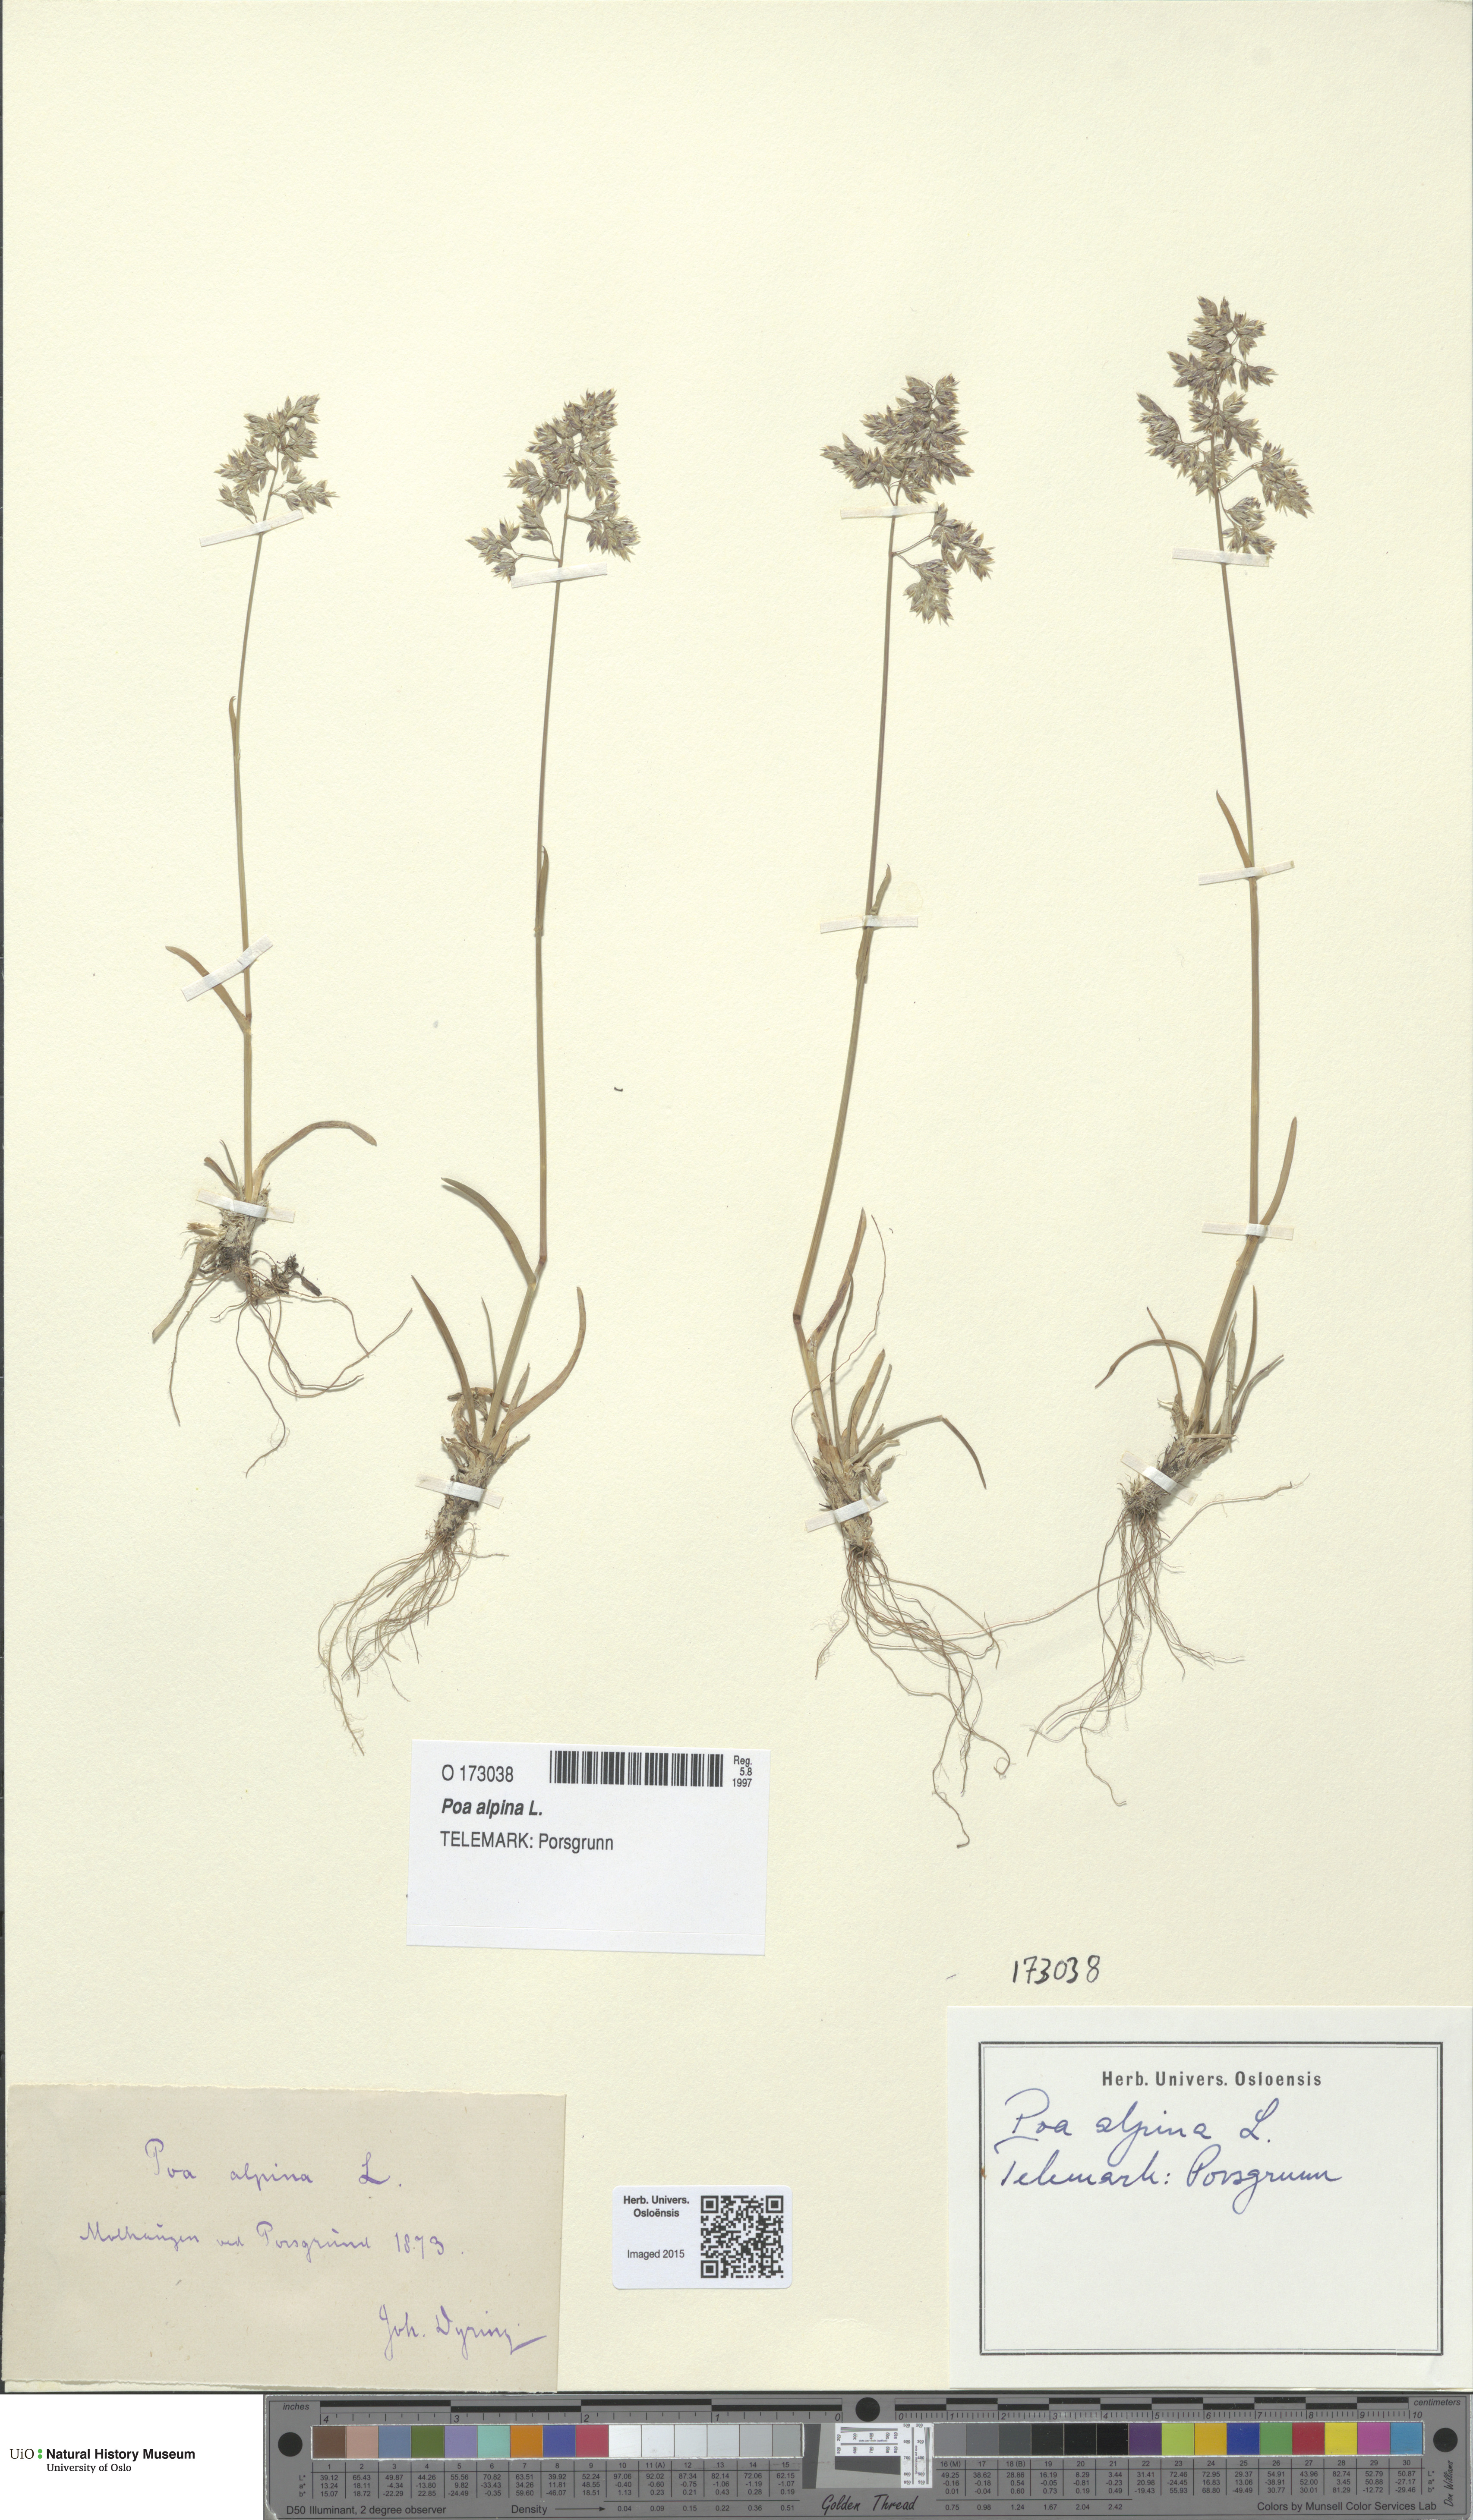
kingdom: Plantae
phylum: Tracheophyta
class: Liliopsida
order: Poales
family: Poaceae
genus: Poa
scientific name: Poa alpina
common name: Alpine bluegrass
